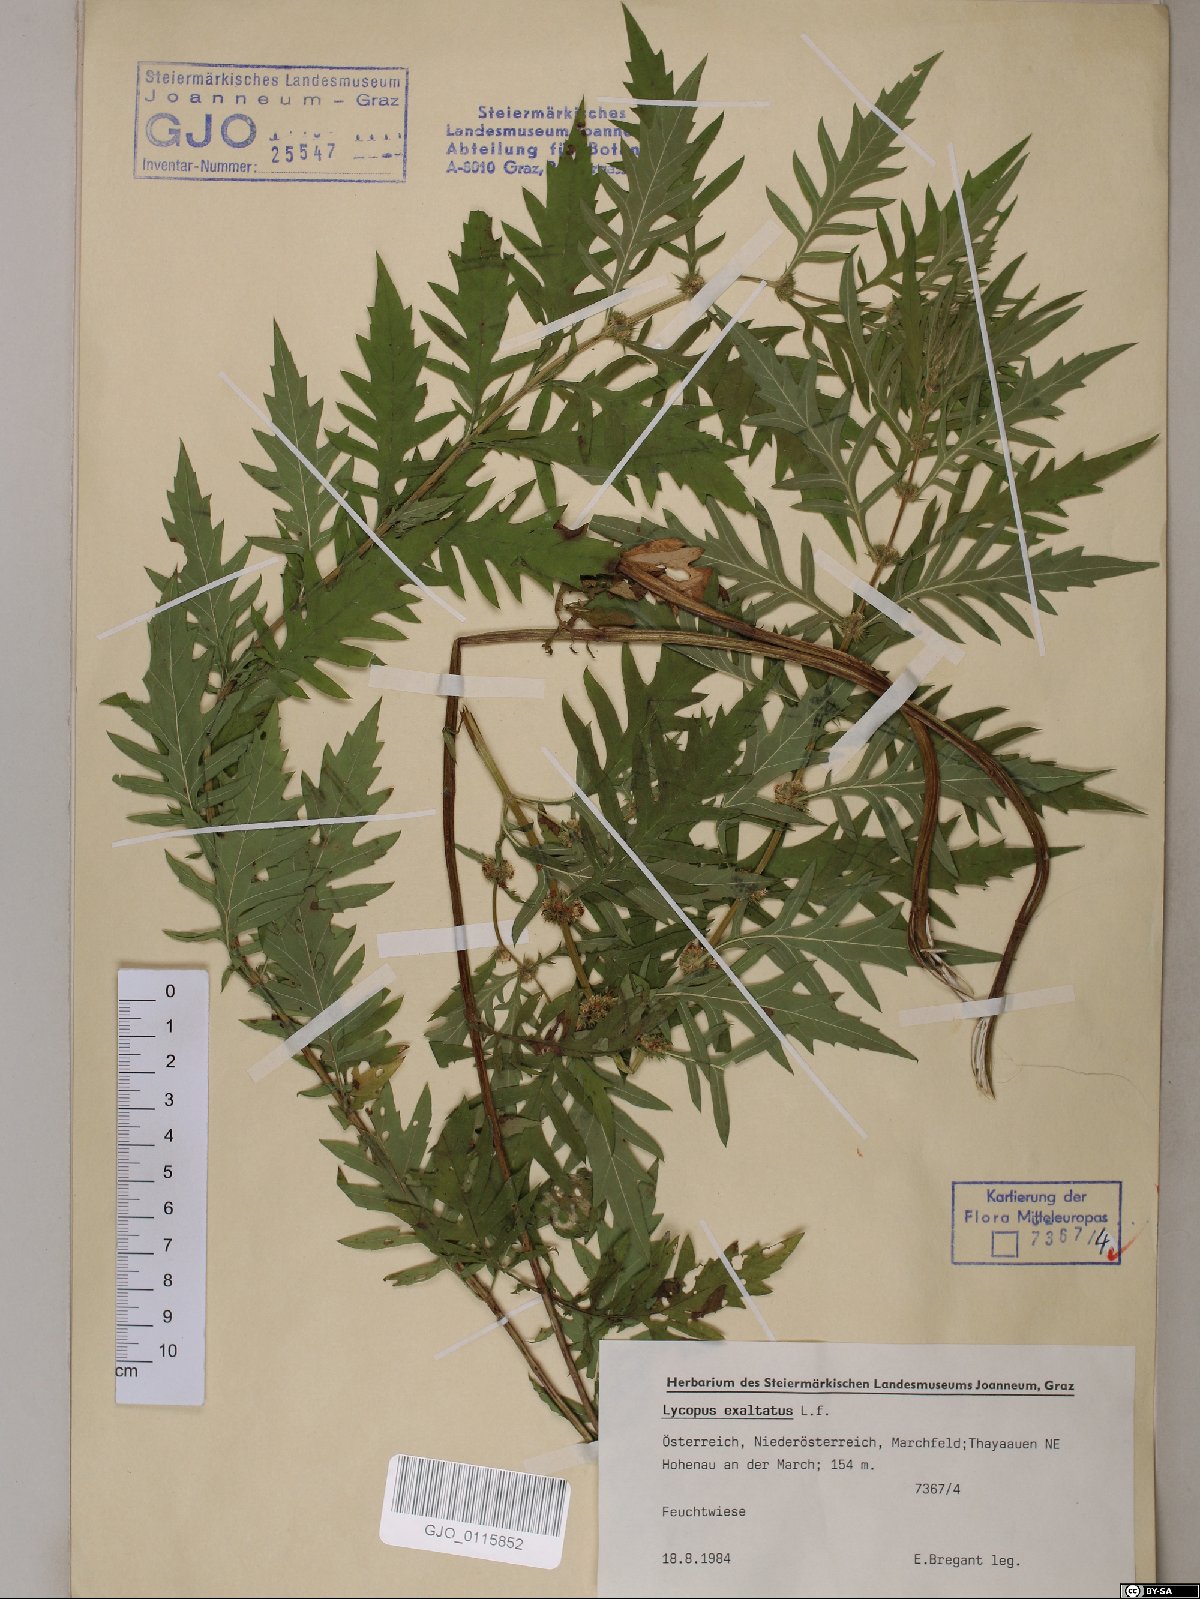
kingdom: Plantae
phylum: Tracheophyta
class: Magnoliopsida
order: Lamiales
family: Lamiaceae
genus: Lycopus
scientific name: Lycopus exaltatus
